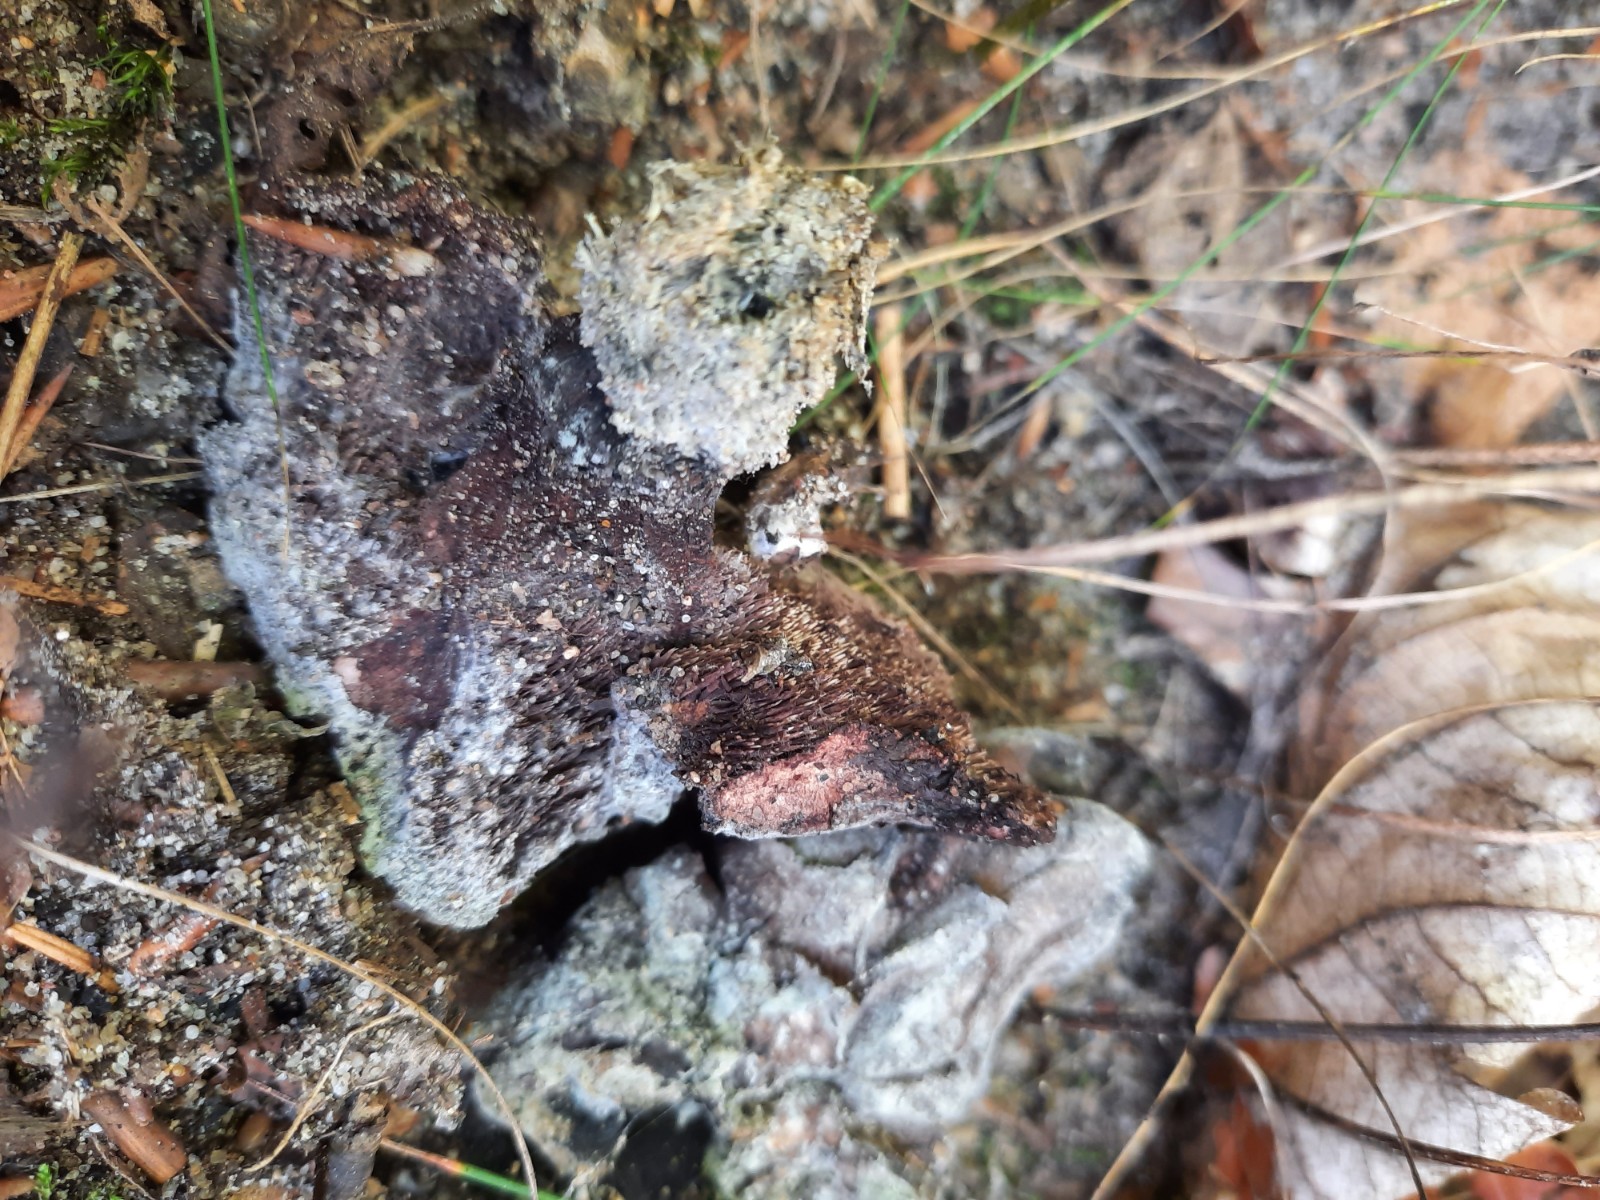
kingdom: Fungi
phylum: Basidiomycota
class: Agaricomycetes
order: Thelephorales
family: Bankeraceae
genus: Hydnellum
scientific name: Hydnellum nemorosum
